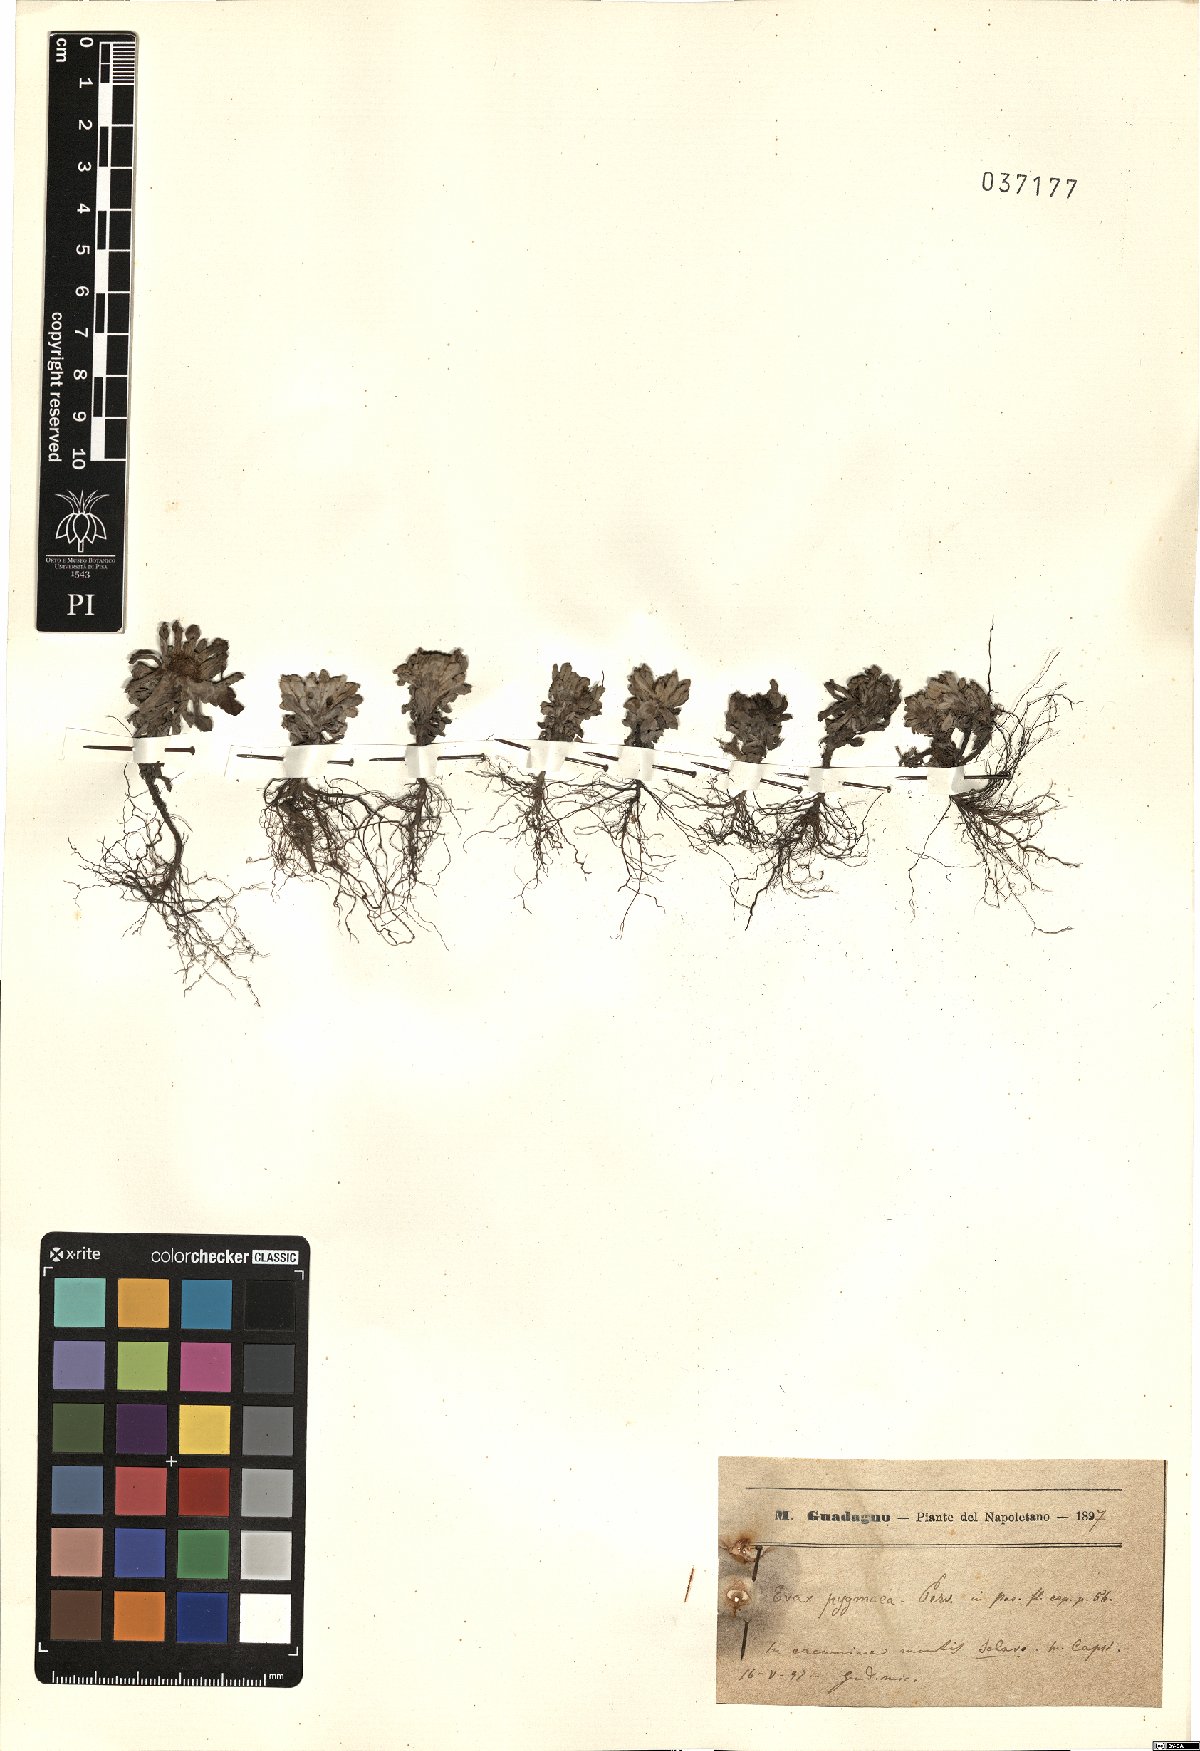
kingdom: Plantae
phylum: Tracheophyta
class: Magnoliopsida
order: Asterales
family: Asteraceae
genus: Filago
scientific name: Filago pygmaea
